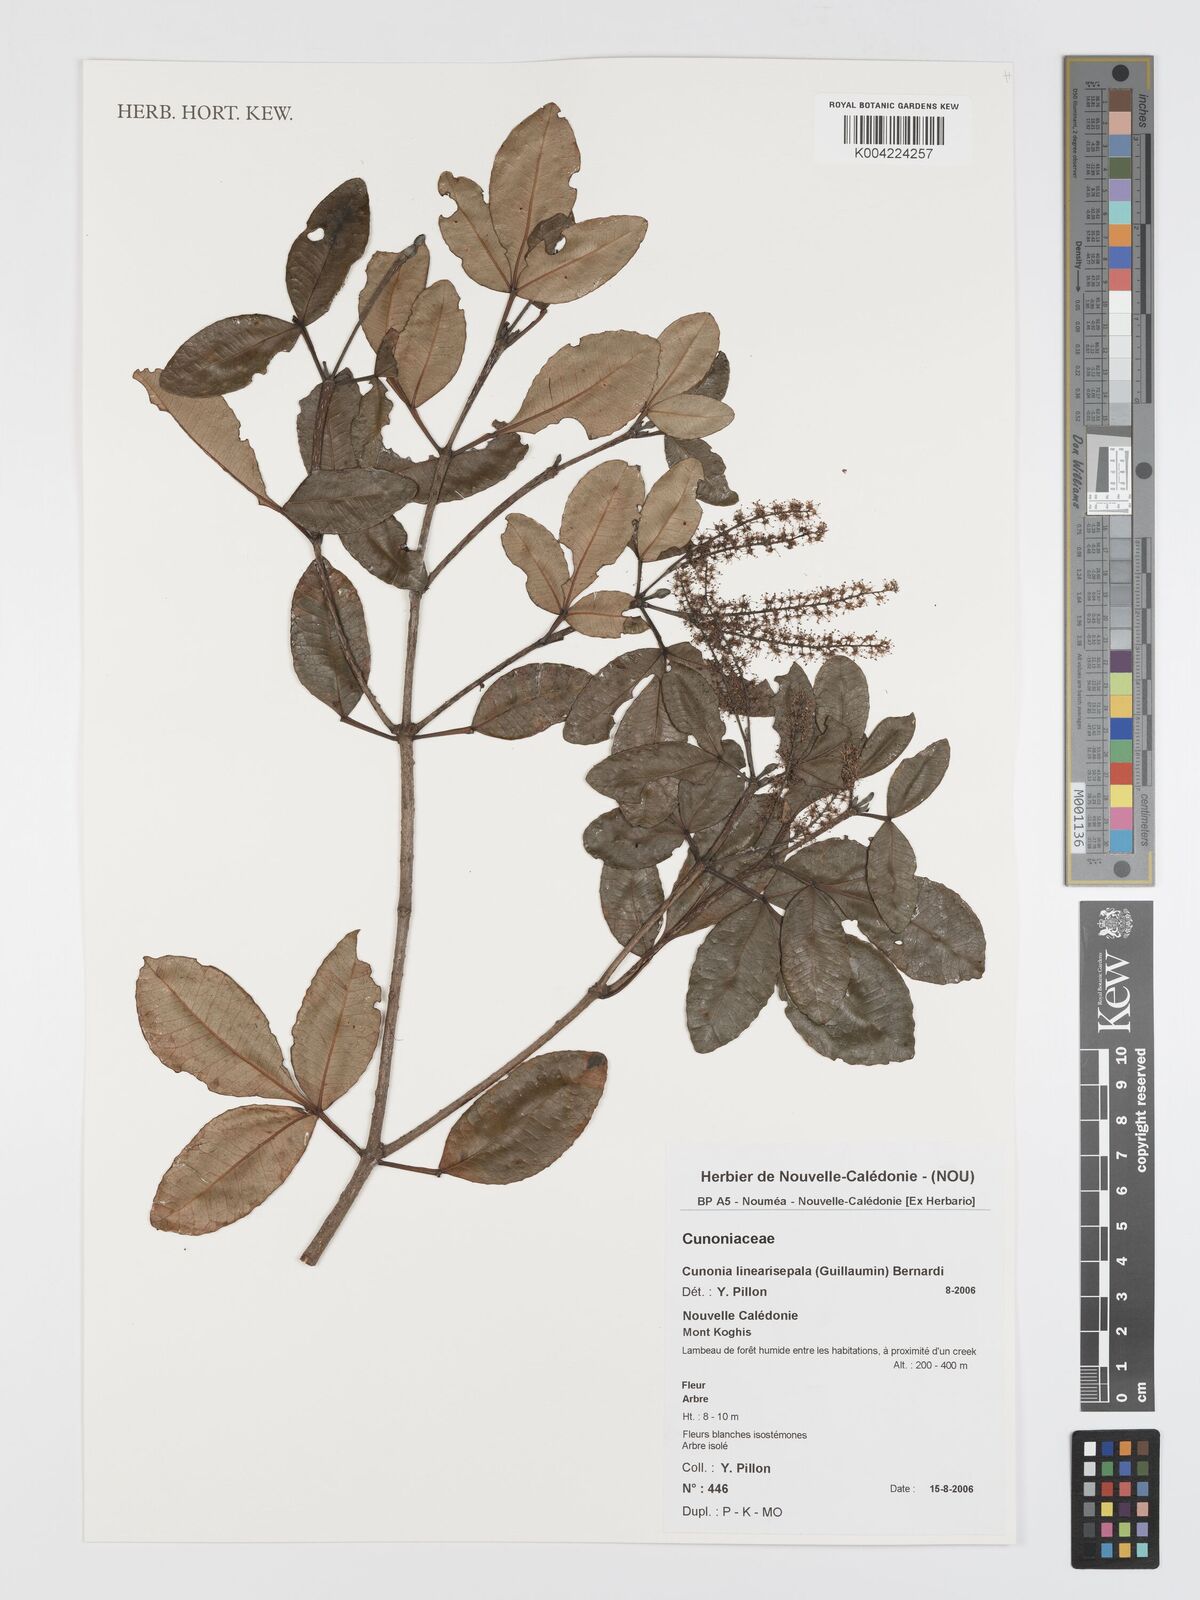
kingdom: Plantae
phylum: Tracheophyta
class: Magnoliopsida
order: Oxalidales
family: Cunoniaceae
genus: Cunonia
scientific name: Cunonia linearisepala
